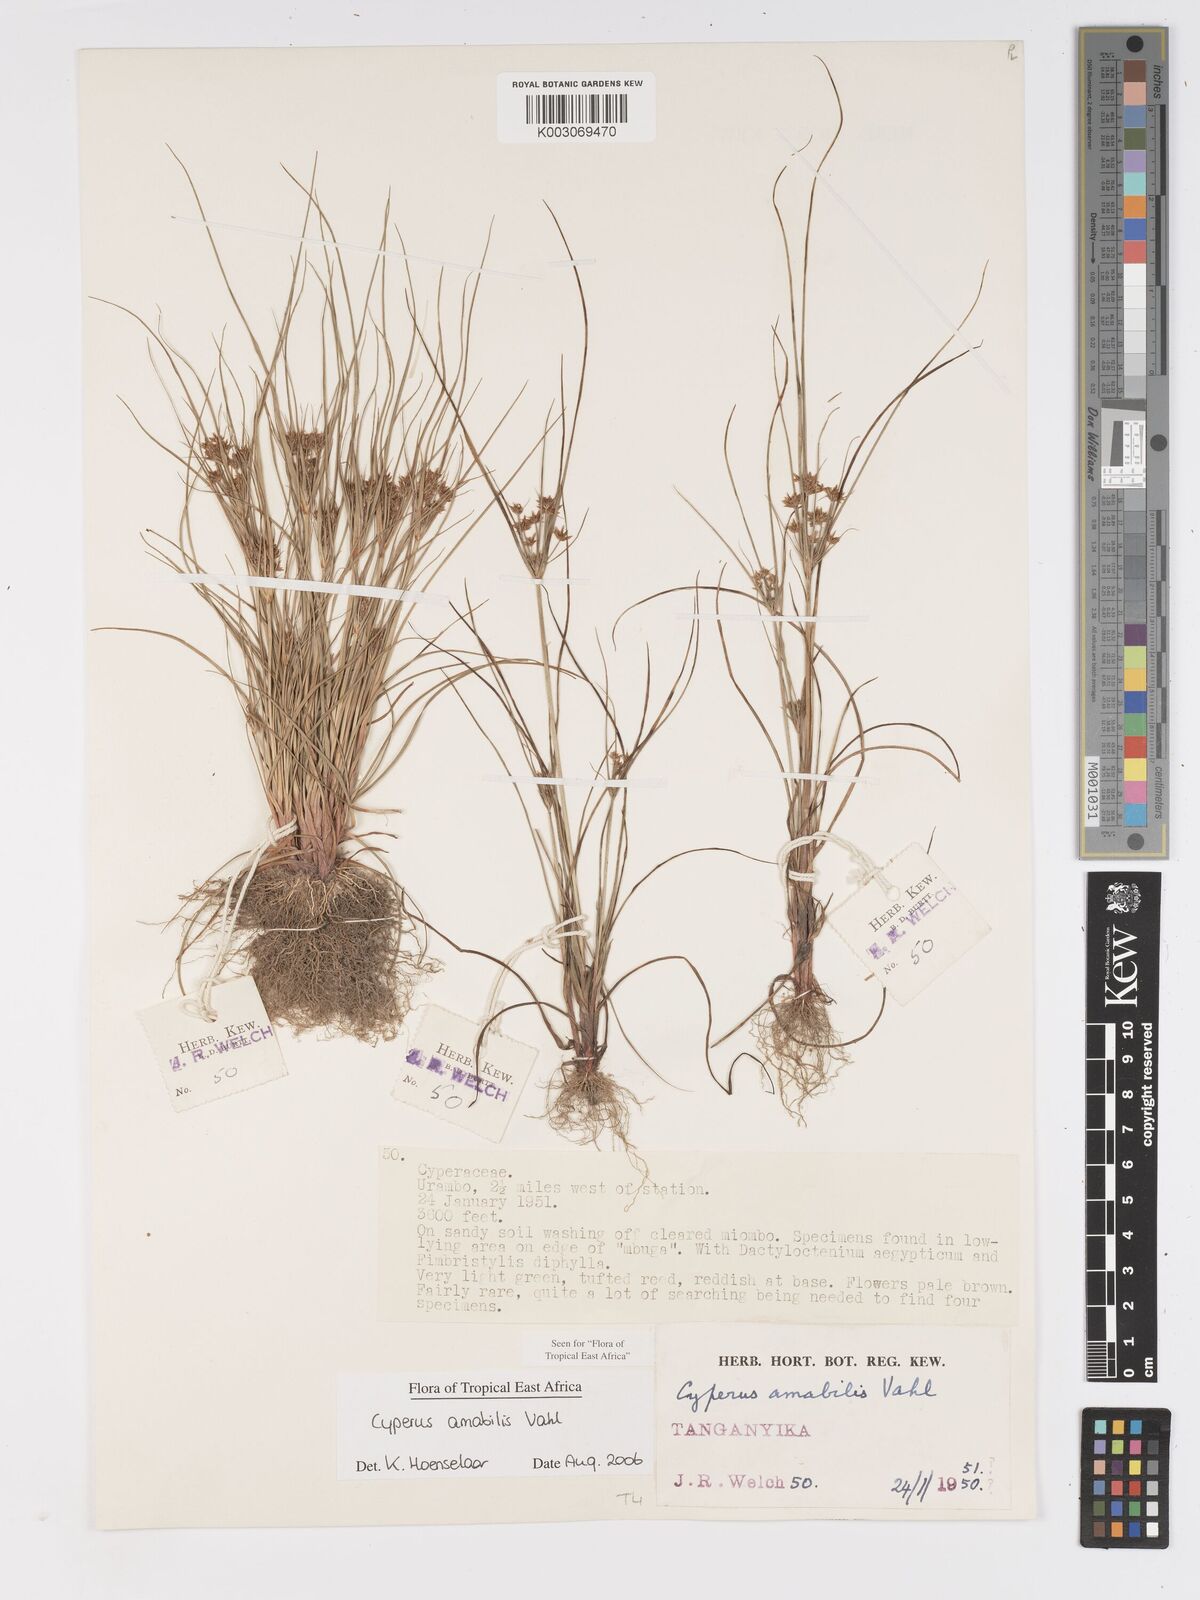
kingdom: Plantae
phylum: Tracheophyta
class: Liliopsida
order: Poales
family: Cyperaceae
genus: Cyperus
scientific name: Cyperus amabilis
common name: Foothill flat sedge
